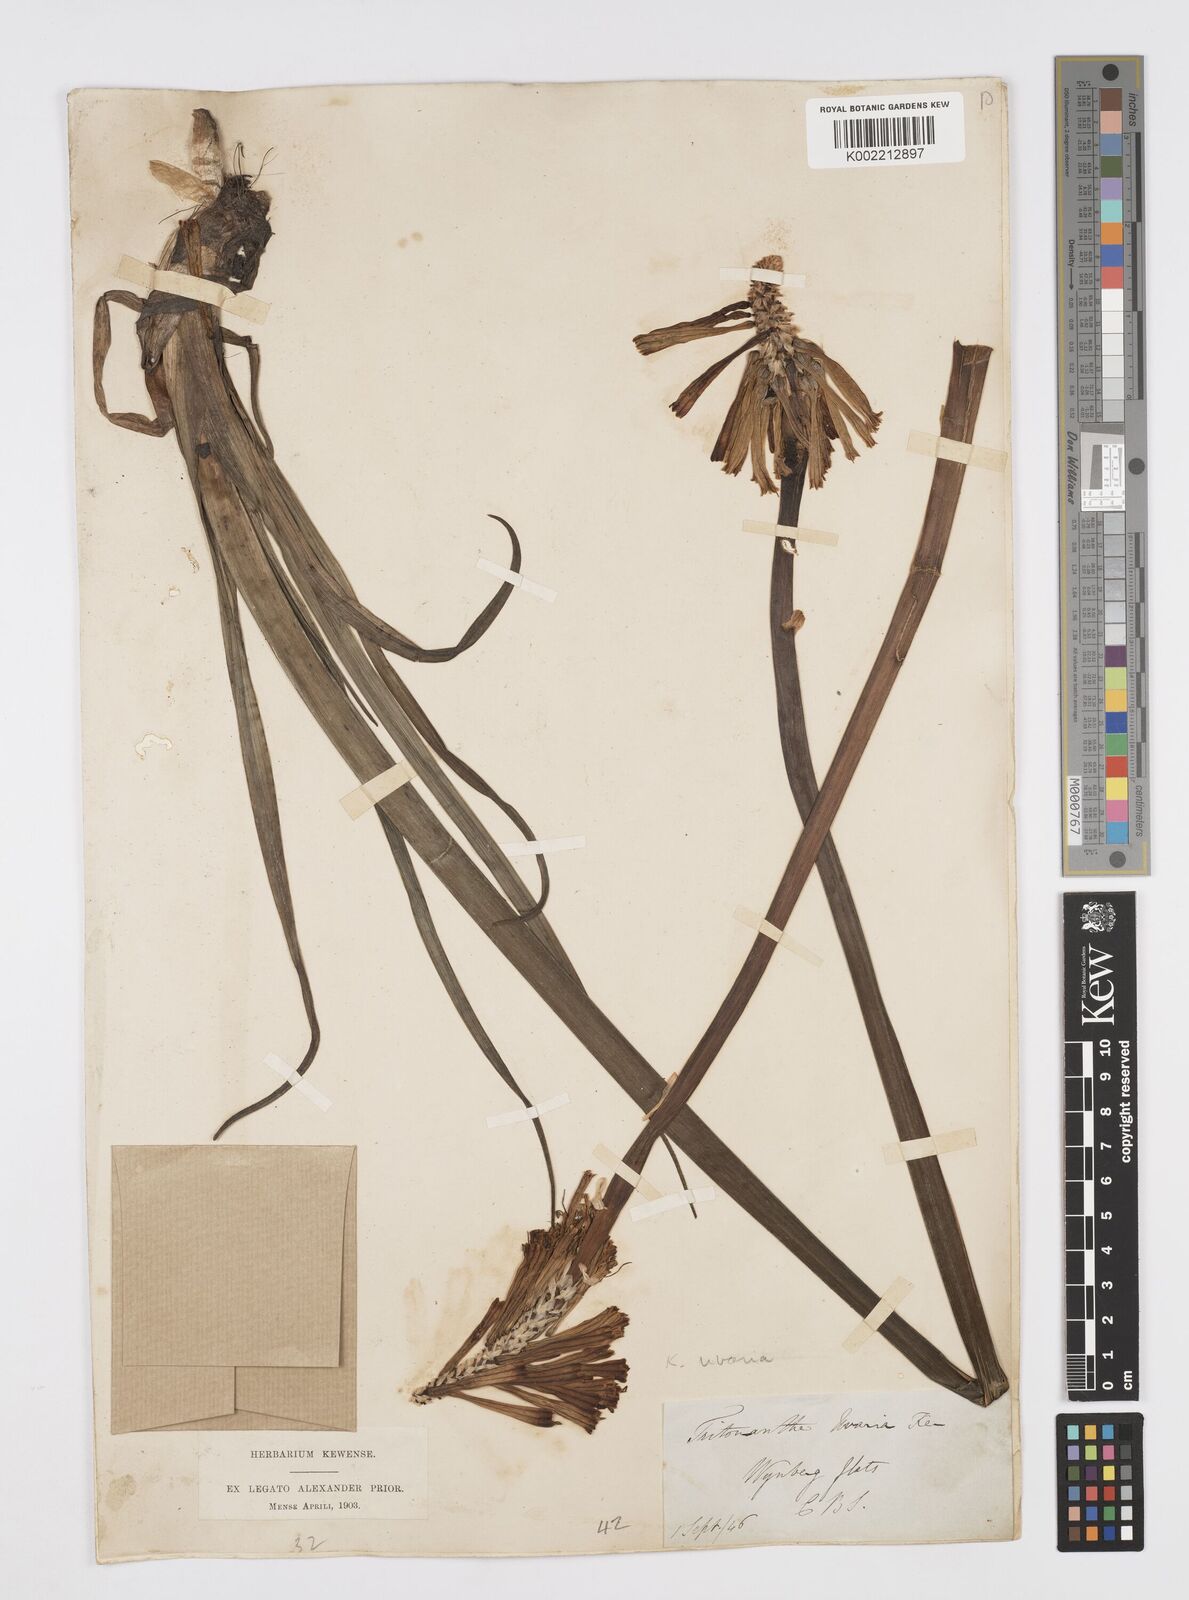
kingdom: Plantae
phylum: Tracheophyta
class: Liliopsida
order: Asparagales
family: Asphodelaceae
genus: Kniphofia
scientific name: Kniphofia uvaria
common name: Red-hot-poker
